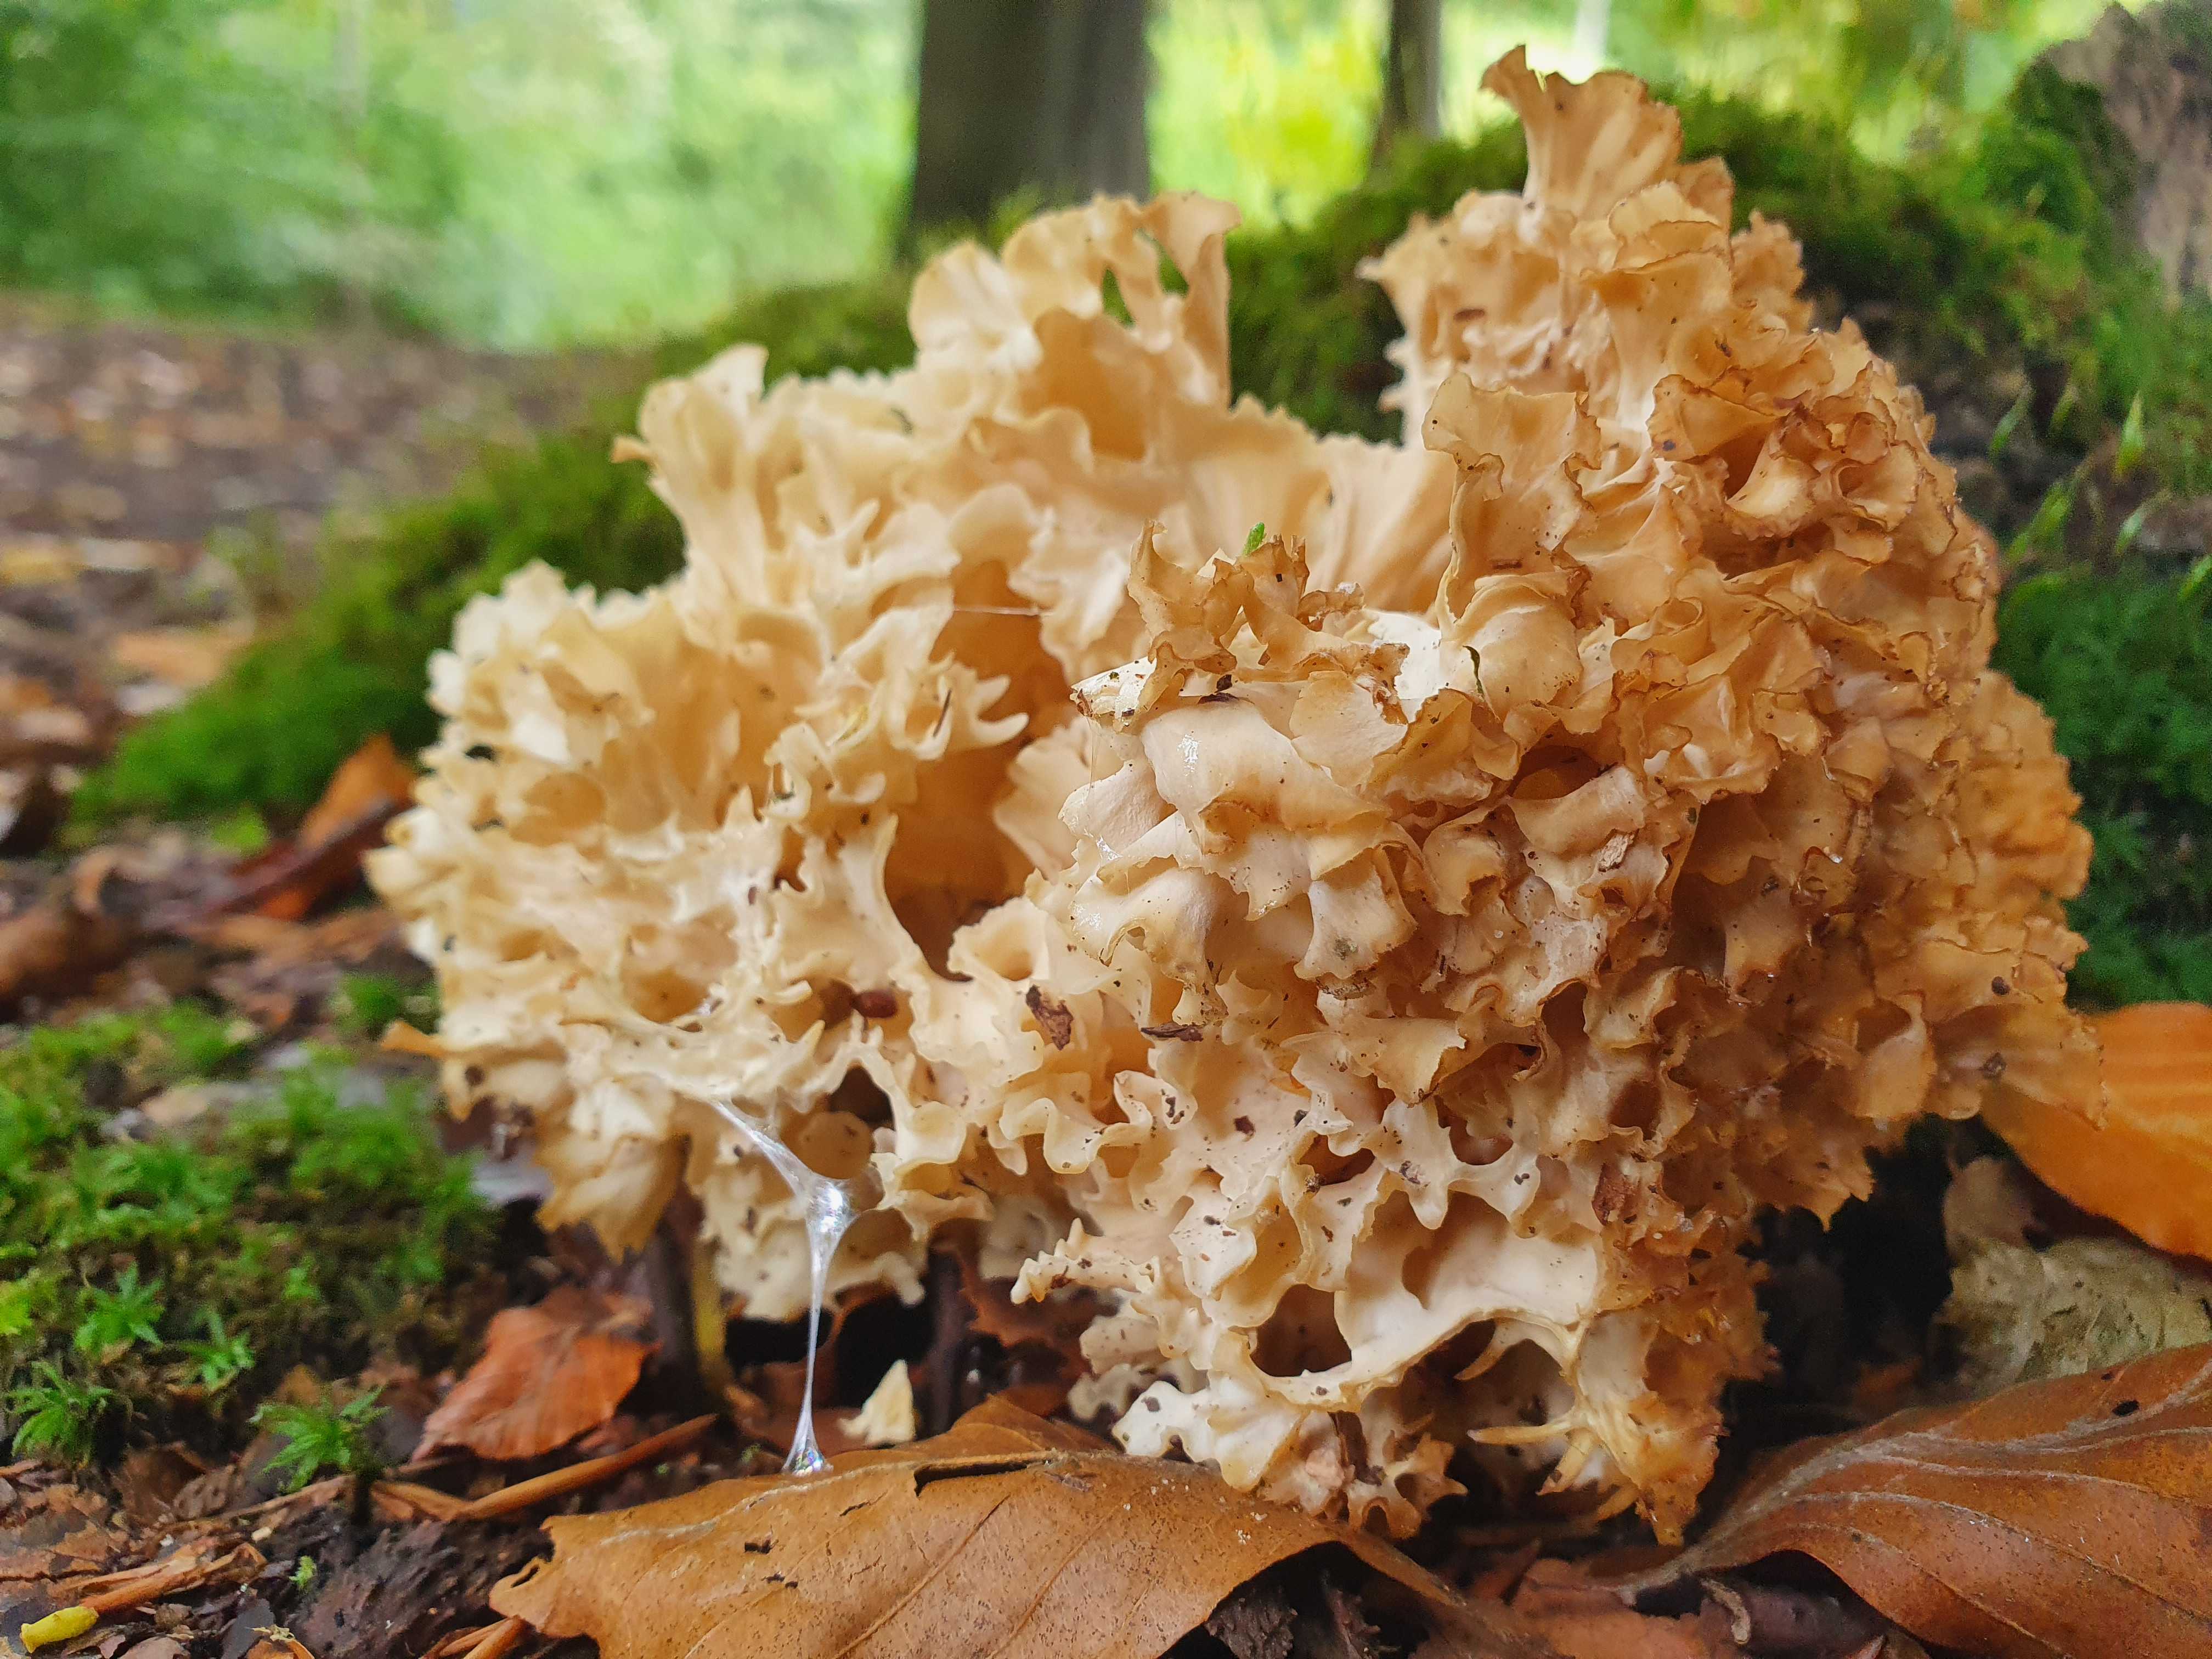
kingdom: Fungi
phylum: Basidiomycota
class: Agaricomycetes
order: Polyporales
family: Sparassidaceae
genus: Sparassis
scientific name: Sparassis crispa
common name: kruset blomkålssvamp
